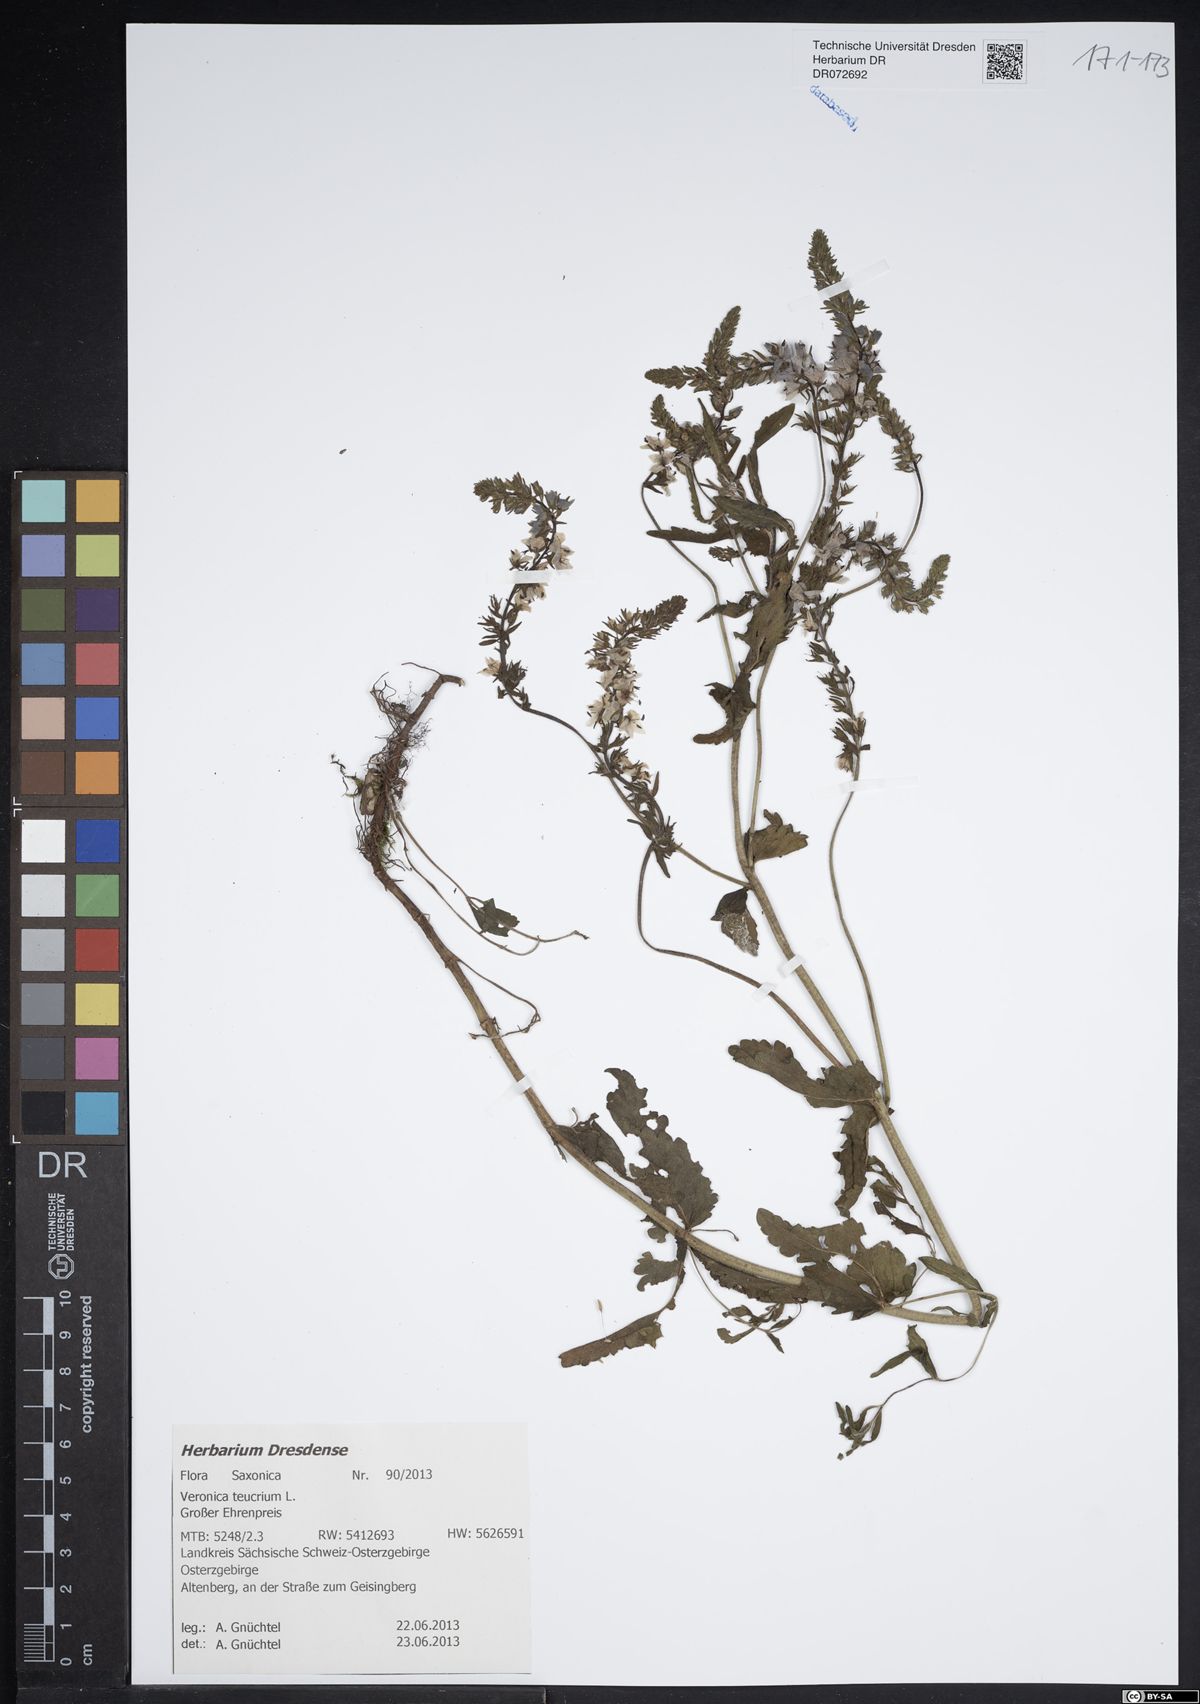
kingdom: Plantae
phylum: Tracheophyta
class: Magnoliopsida
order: Lamiales
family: Plantaginaceae
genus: Veronica
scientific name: Veronica teucrium
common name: Large speedwell
